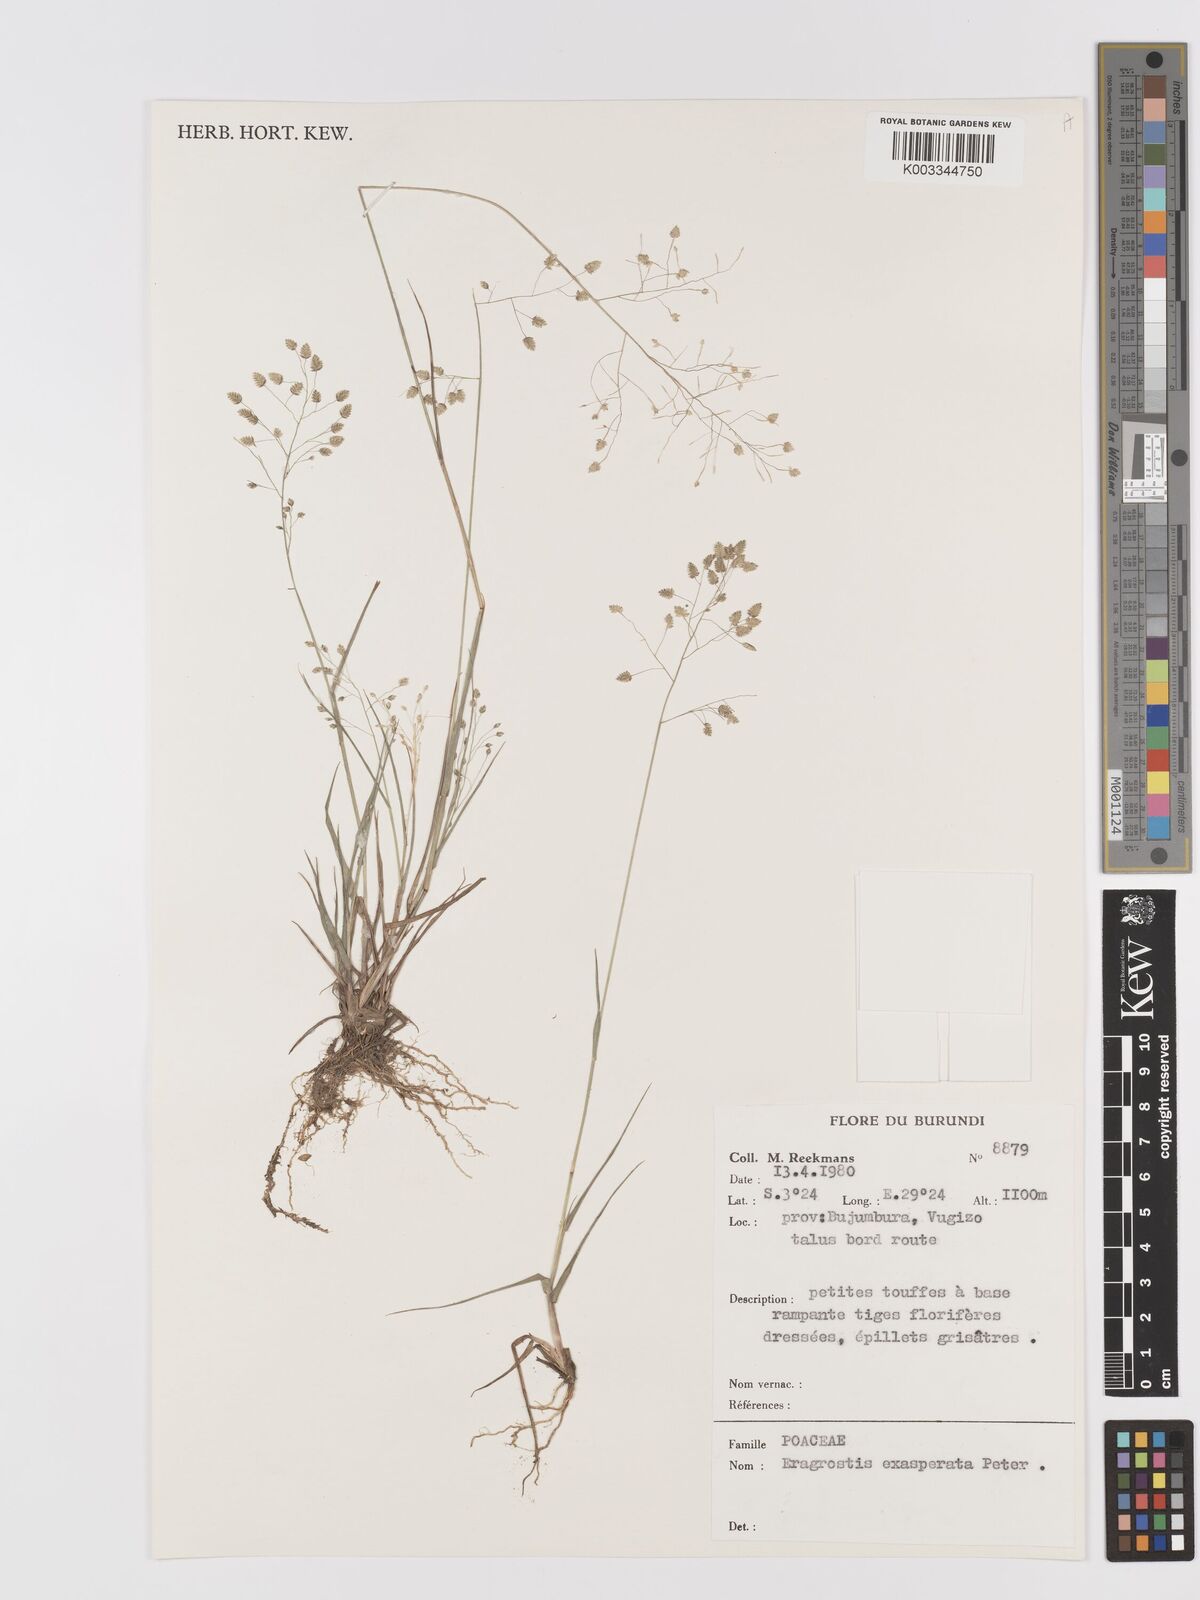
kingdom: Plantae
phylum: Tracheophyta
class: Liliopsida
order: Poales
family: Poaceae
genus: Eragrostis
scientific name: Eragrostis exasperata
